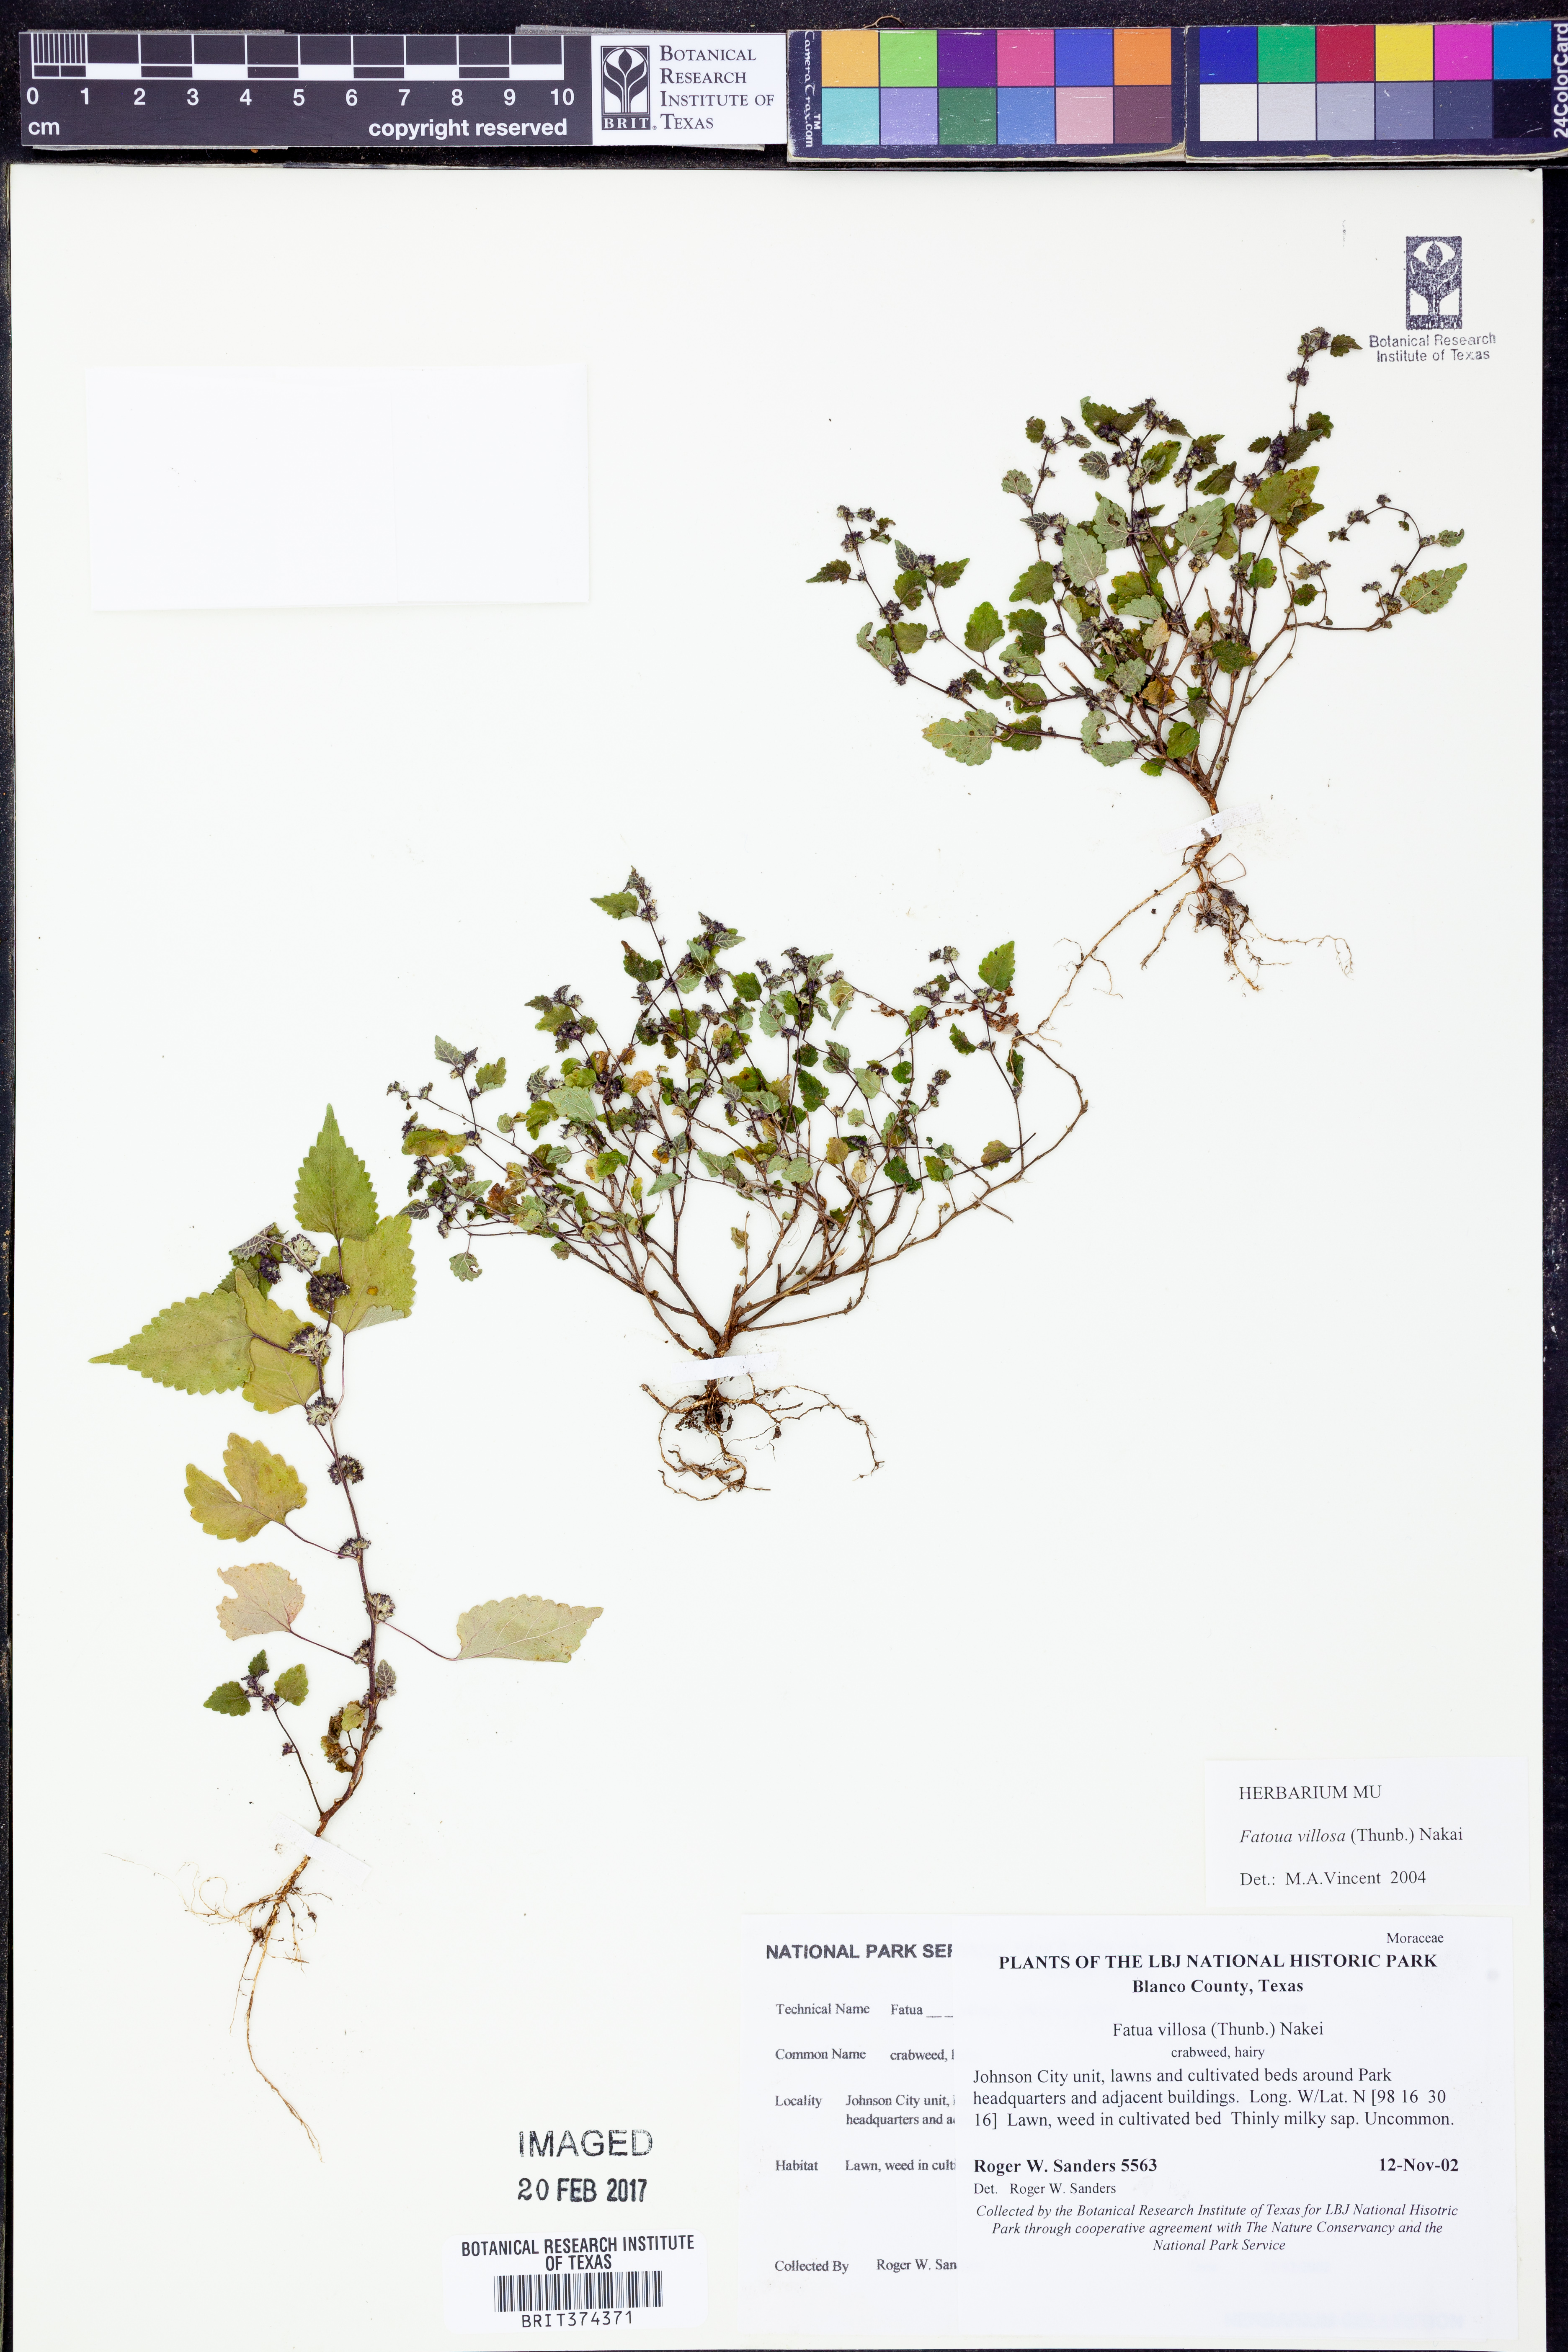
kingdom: Plantae
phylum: Tracheophyta
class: Magnoliopsida
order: Rosales
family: Moraceae
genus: Fatoua
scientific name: Fatoua villosa
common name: Hairy crabweed
